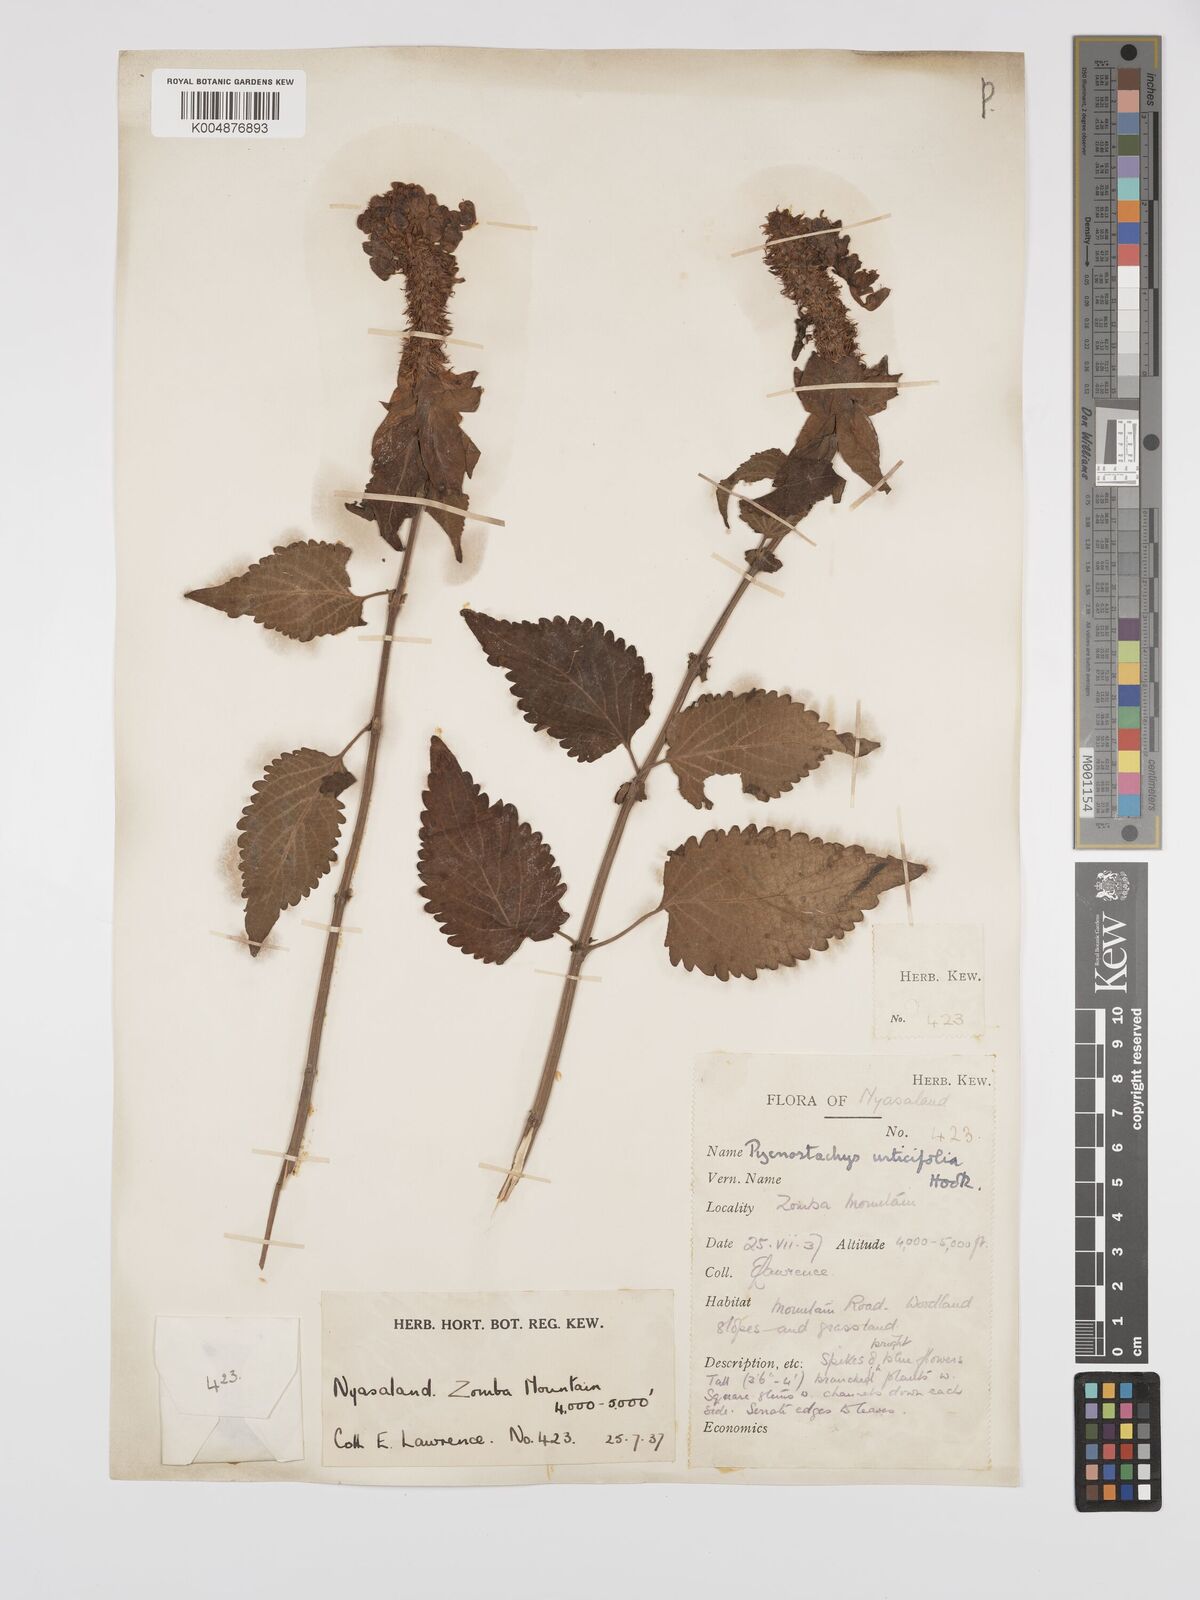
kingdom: Plantae
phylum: Tracheophyta
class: Magnoliopsida
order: Lamiales
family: Lamiaceae
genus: Coleus
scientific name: Coleus livingstonei
